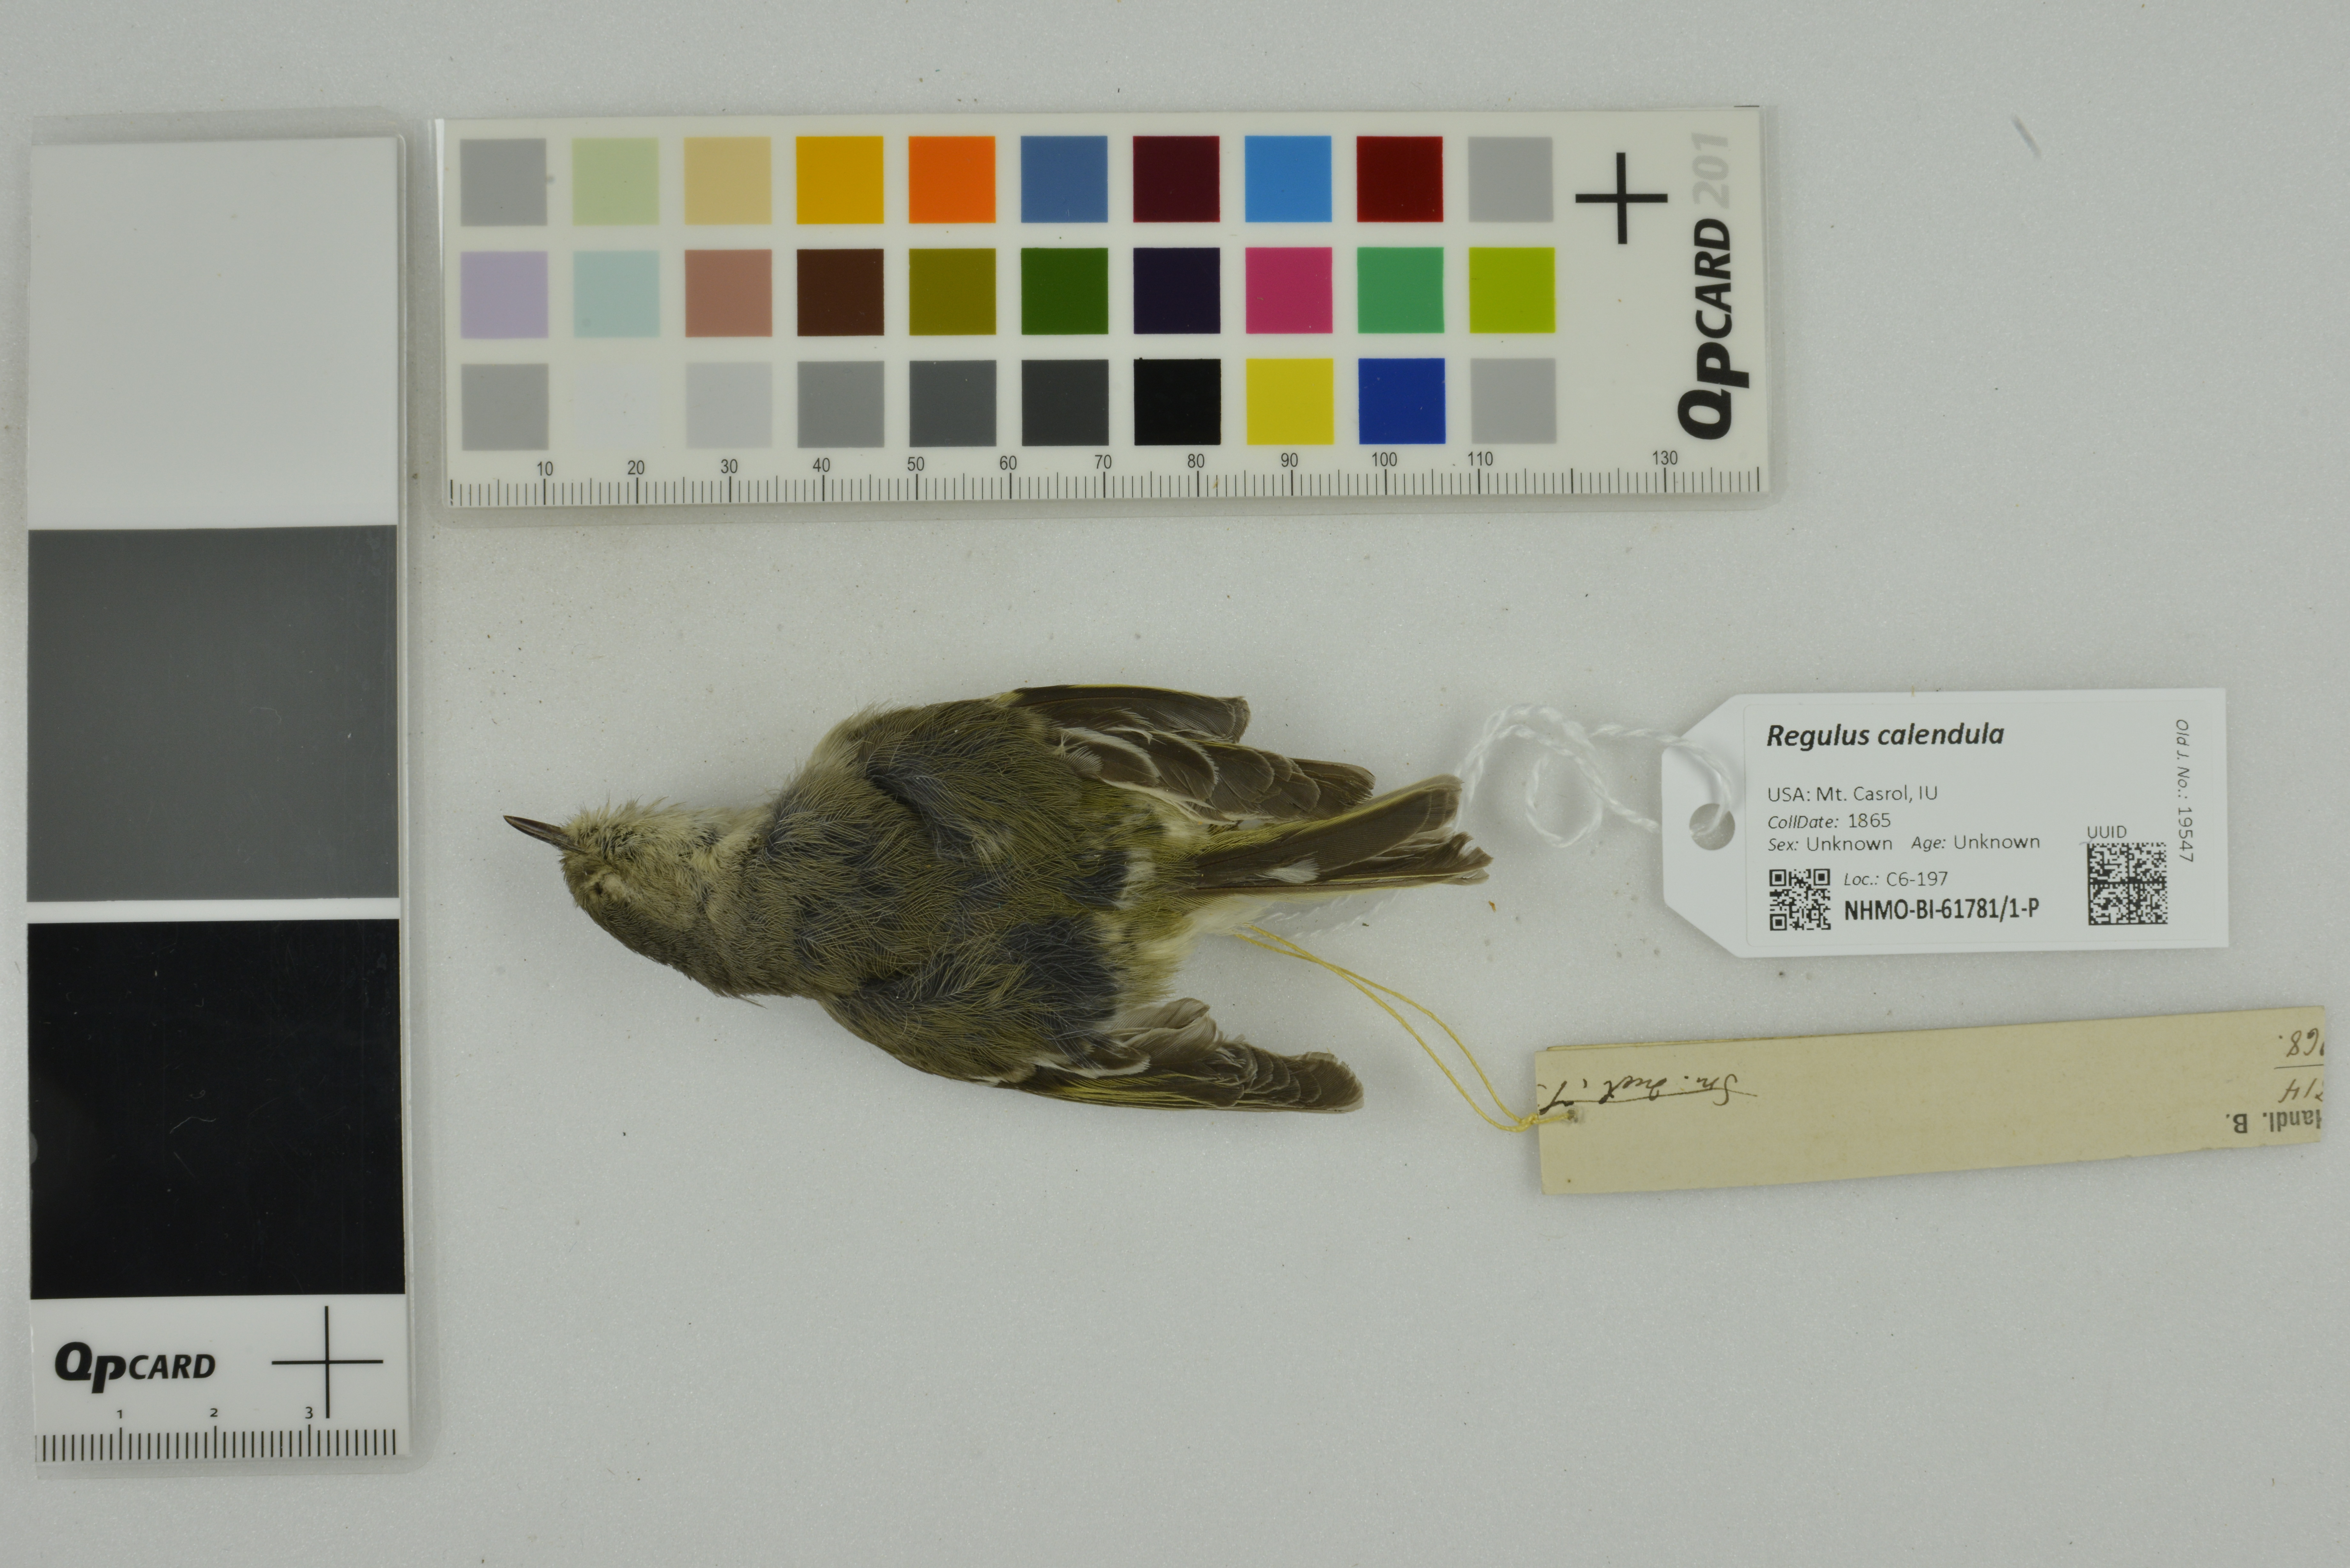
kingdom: Animalia
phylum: Chordata
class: Aves
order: Passeriformes
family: Regulidae
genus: Regulus
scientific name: Regulus calendula
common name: Ruby-crowned kinglet
